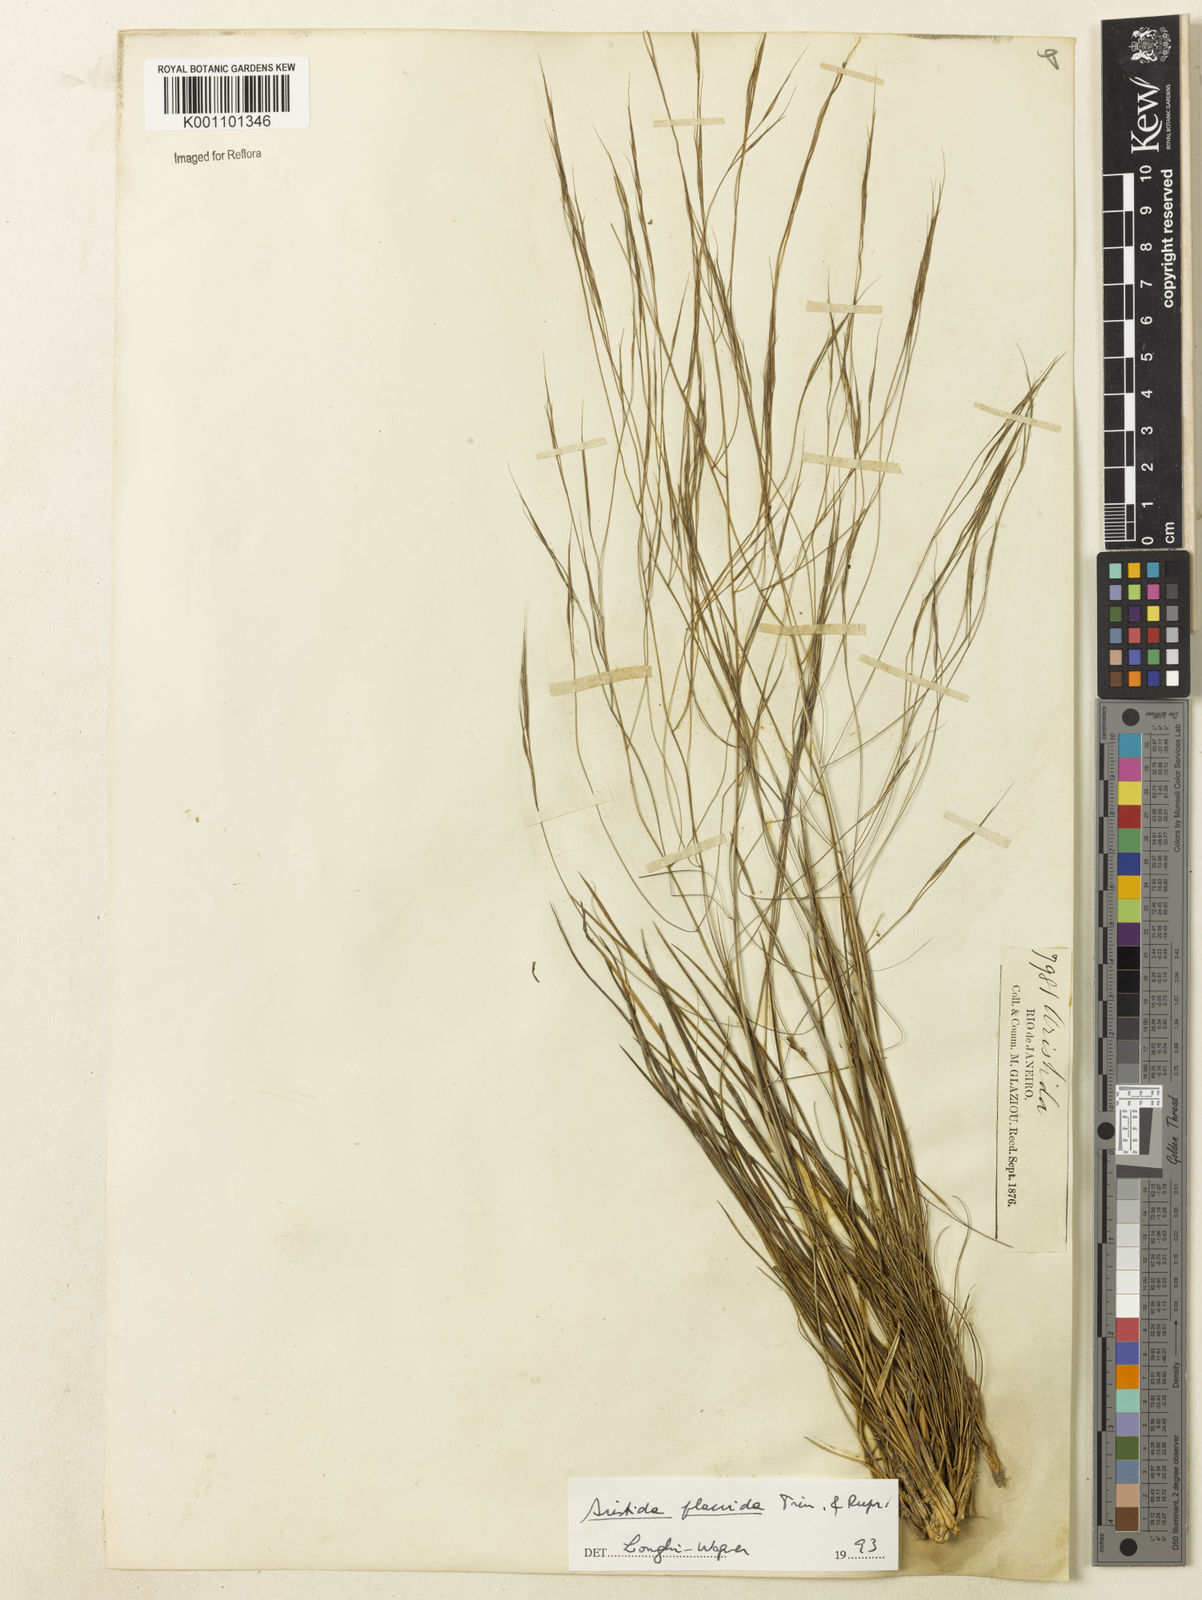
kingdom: Plantae
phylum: Tracheophyta
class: Liliopsida
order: Poales
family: Poaceae
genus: Aristida
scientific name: Aristida flaccida
